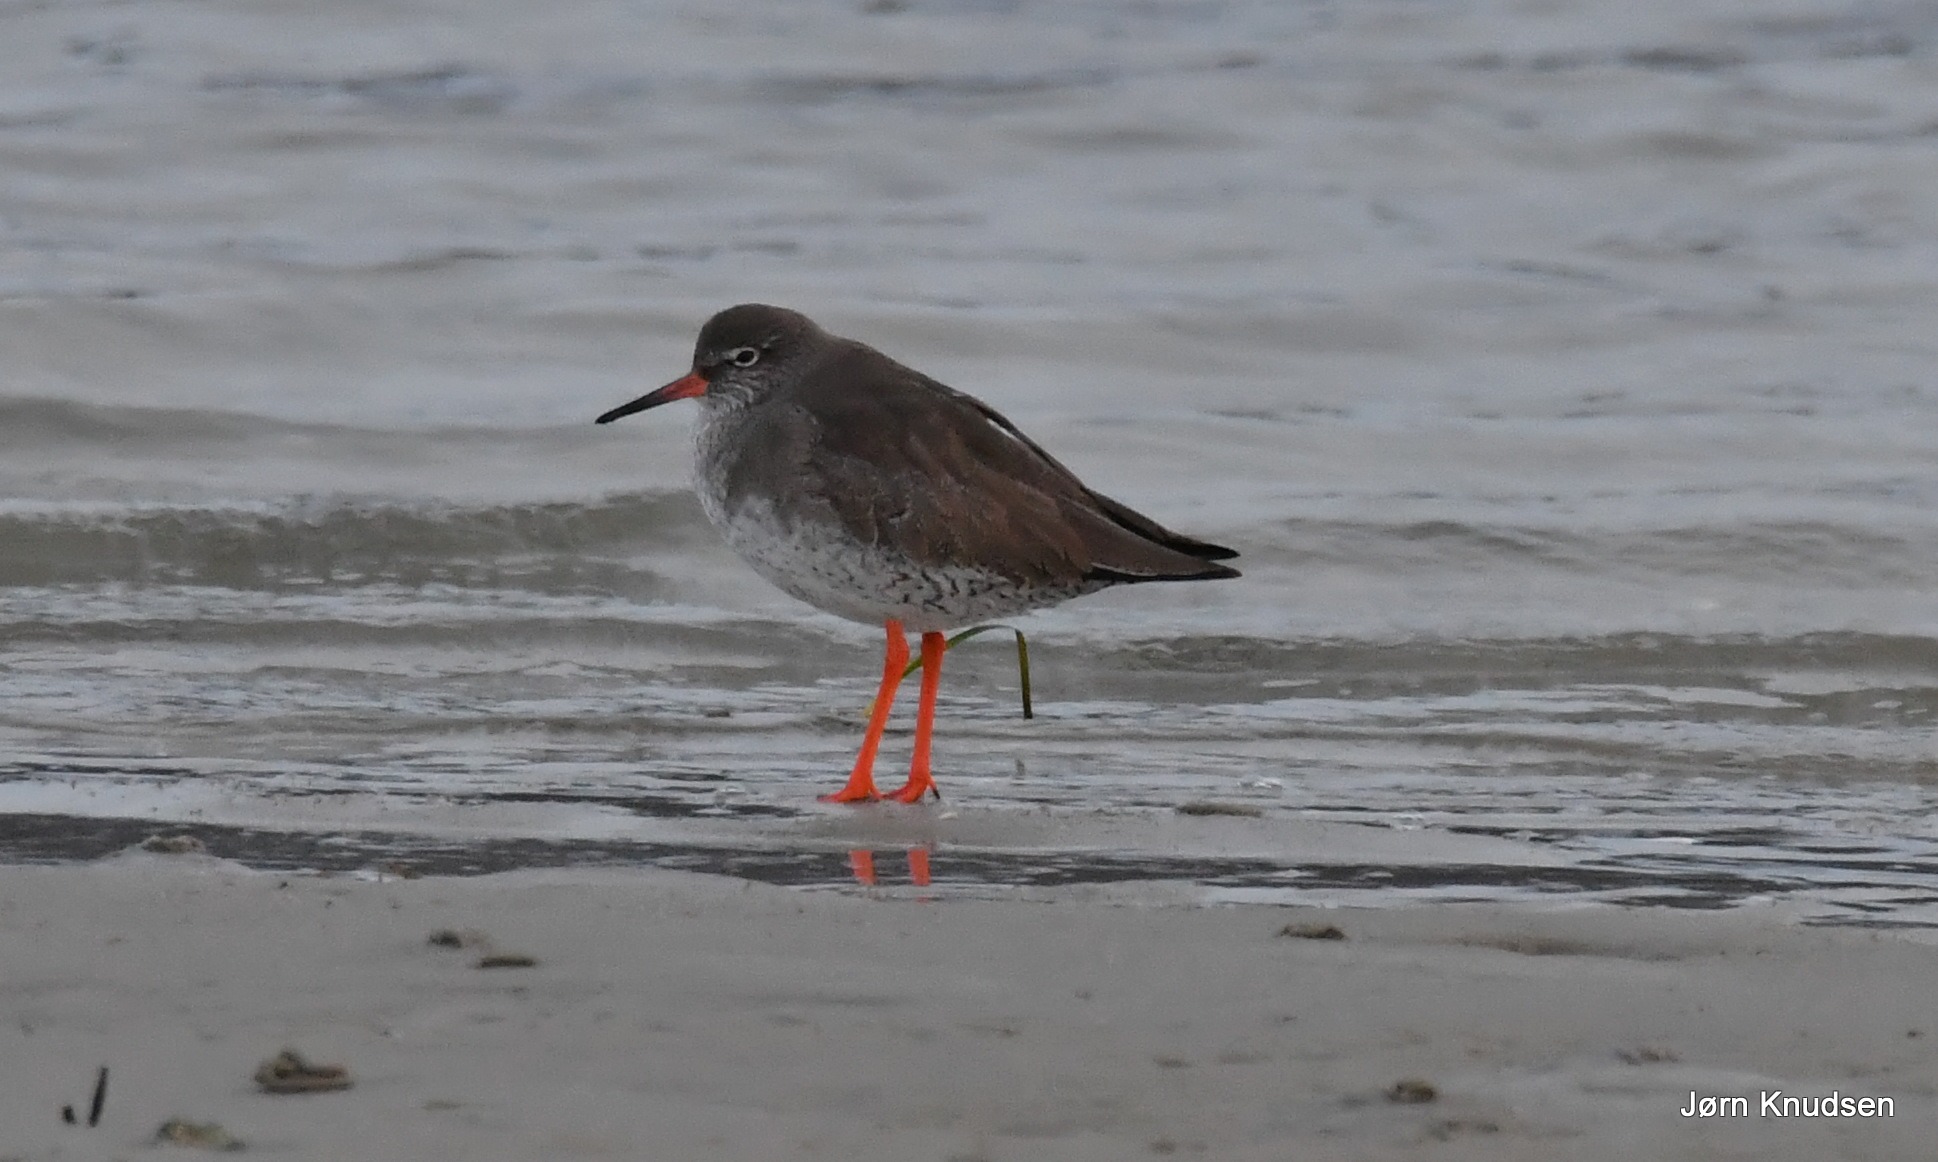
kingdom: Animalia
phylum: Chordata
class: Aves
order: Charadriiformes
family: Scolopacidae
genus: Tringa
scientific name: Tringa totanus
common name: Rødben
